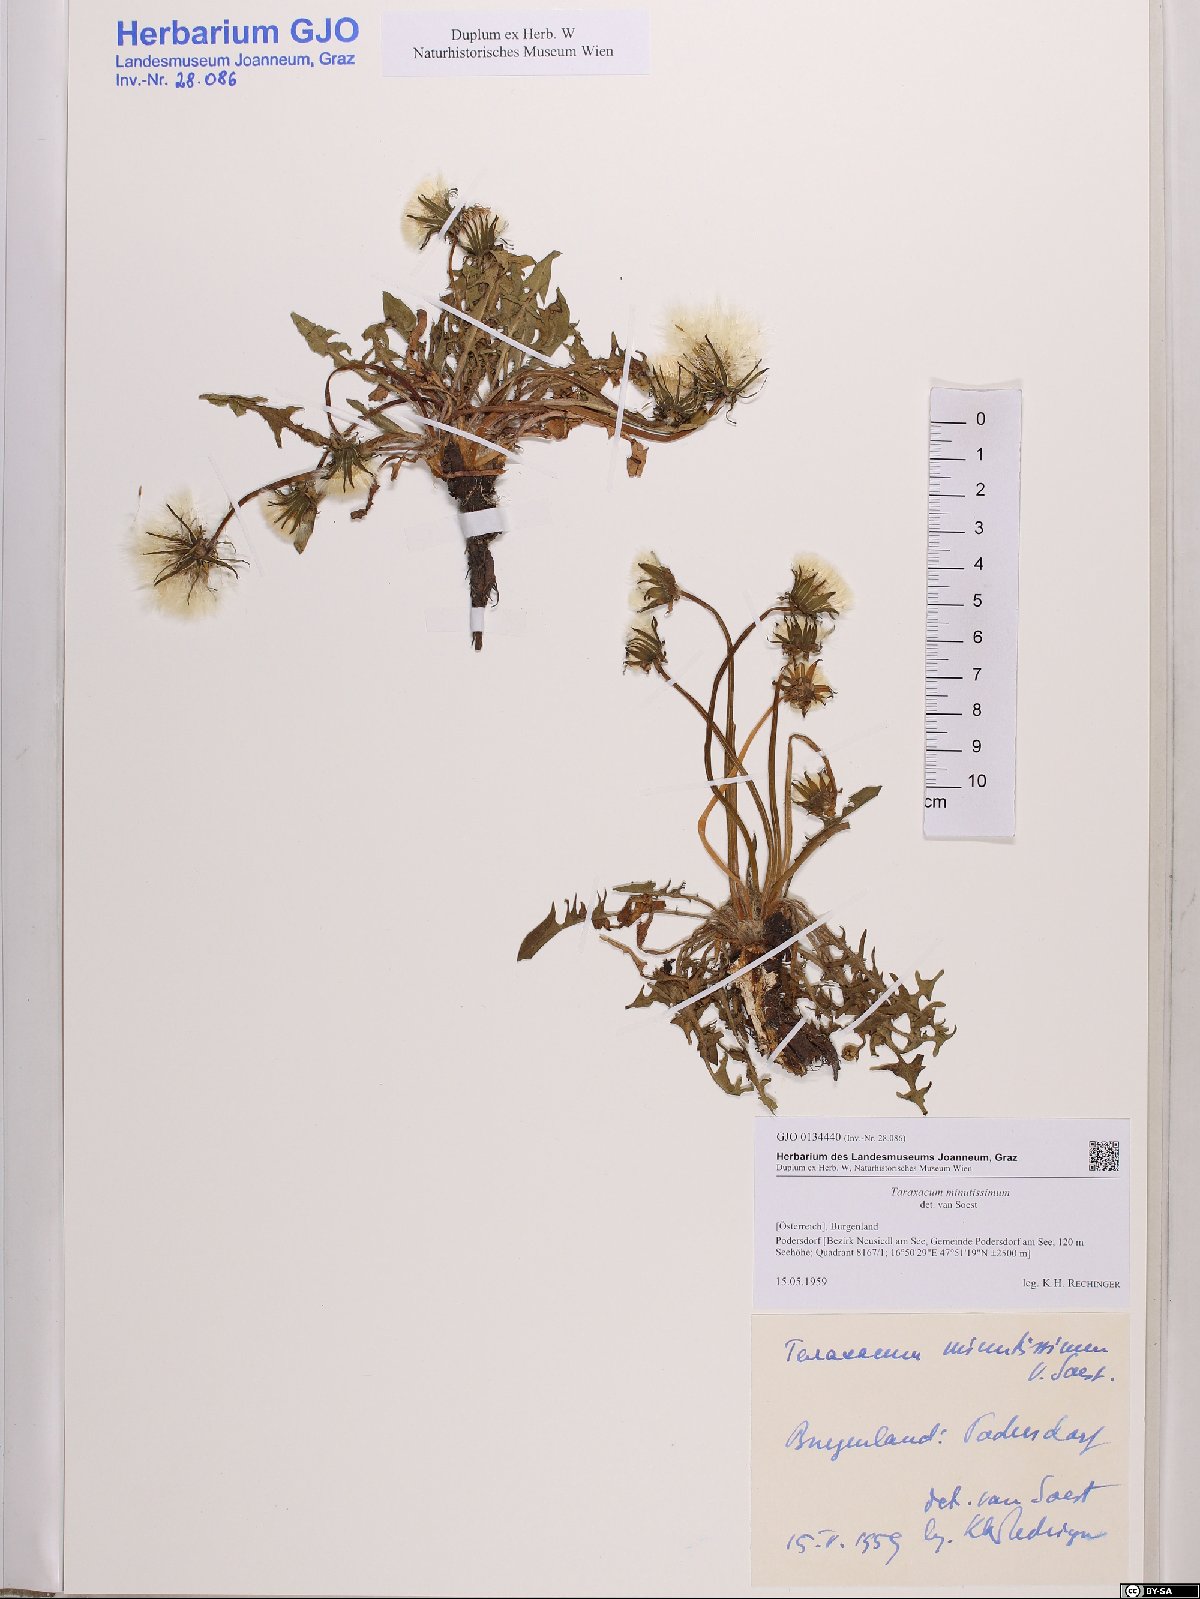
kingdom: Plantae
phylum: Tracheophyta
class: Magnoliopsida
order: Asterales
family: Asteraceae
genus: Taraxacum
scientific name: Taraxacum minutissimum
